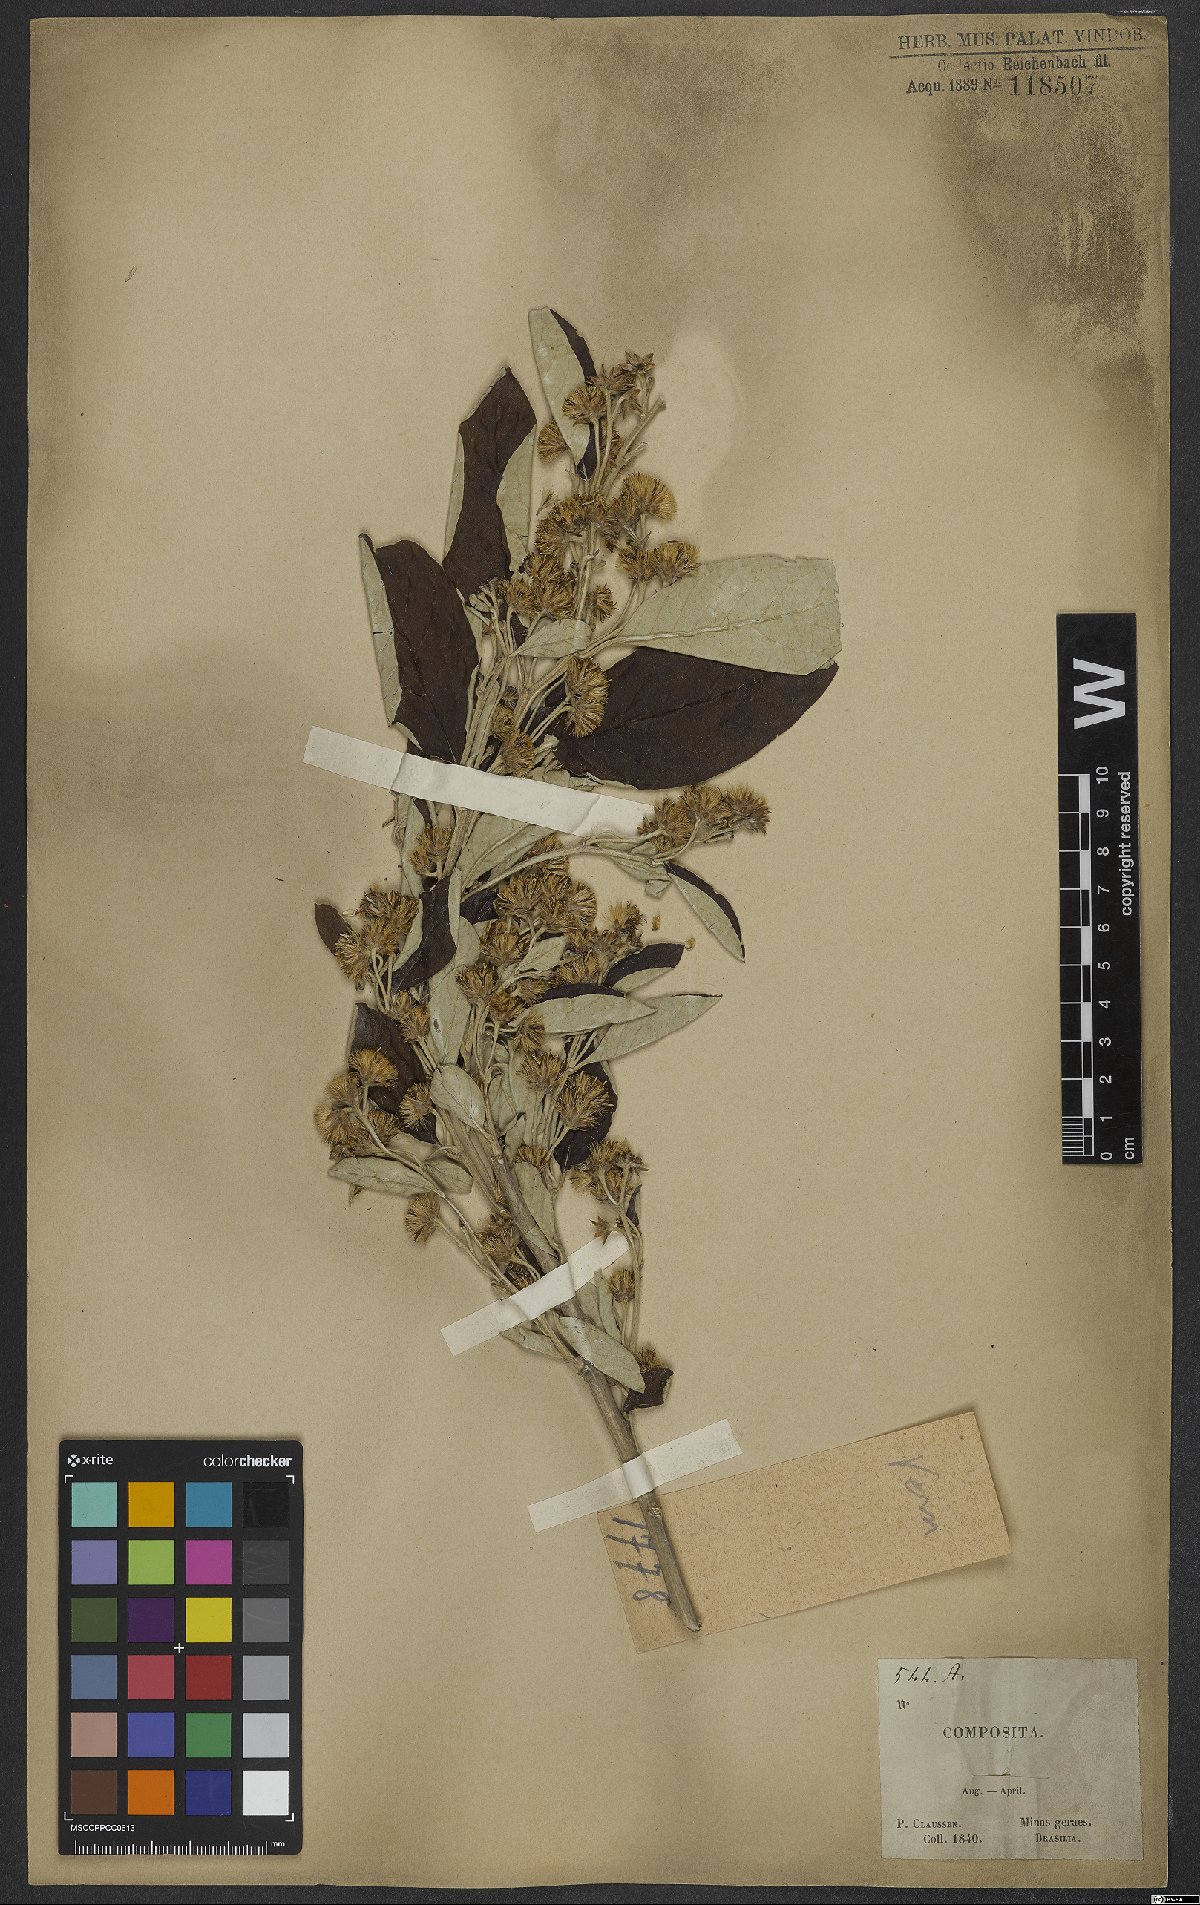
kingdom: Plantae
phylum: Tracheophyta
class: Magnoliopsida
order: Asterales
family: Asteraceae
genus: Vernonia
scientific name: Vernonia
